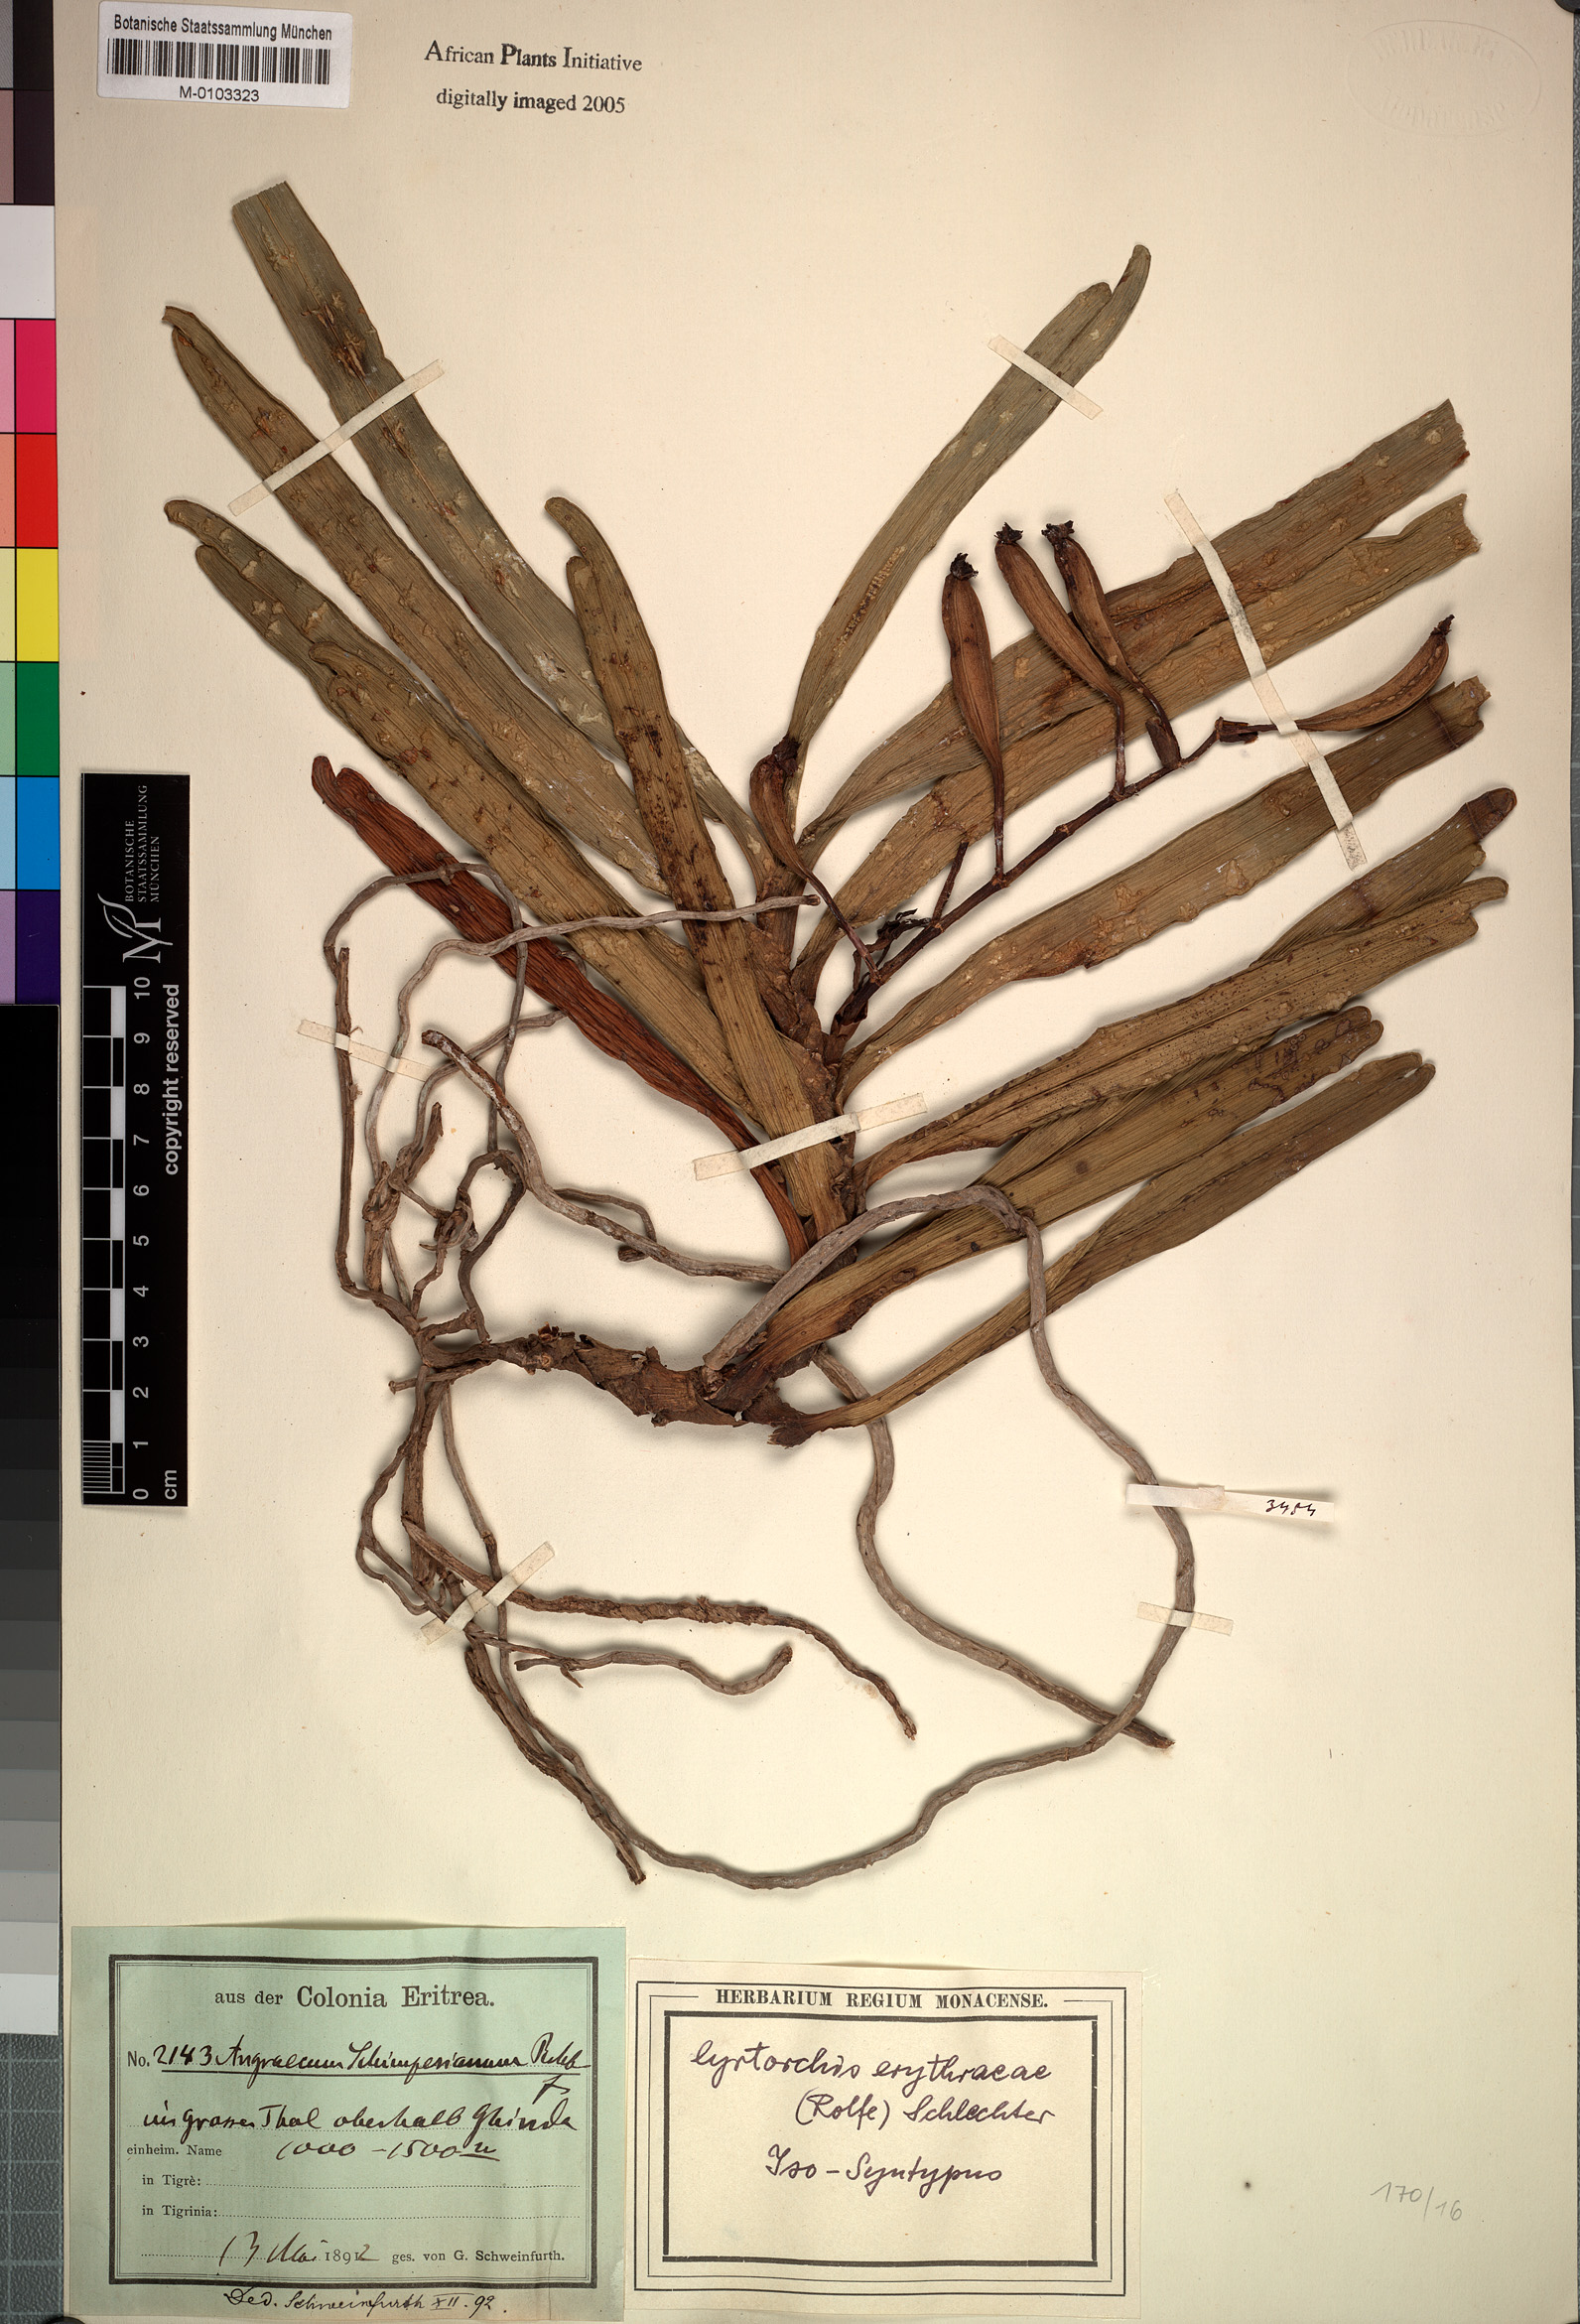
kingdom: Plantae
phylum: Tracheophyta
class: Liliopsida
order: Asparagales
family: Orchidaceae
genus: Cyrtorchis
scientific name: Cyrtorchis erythraeae
